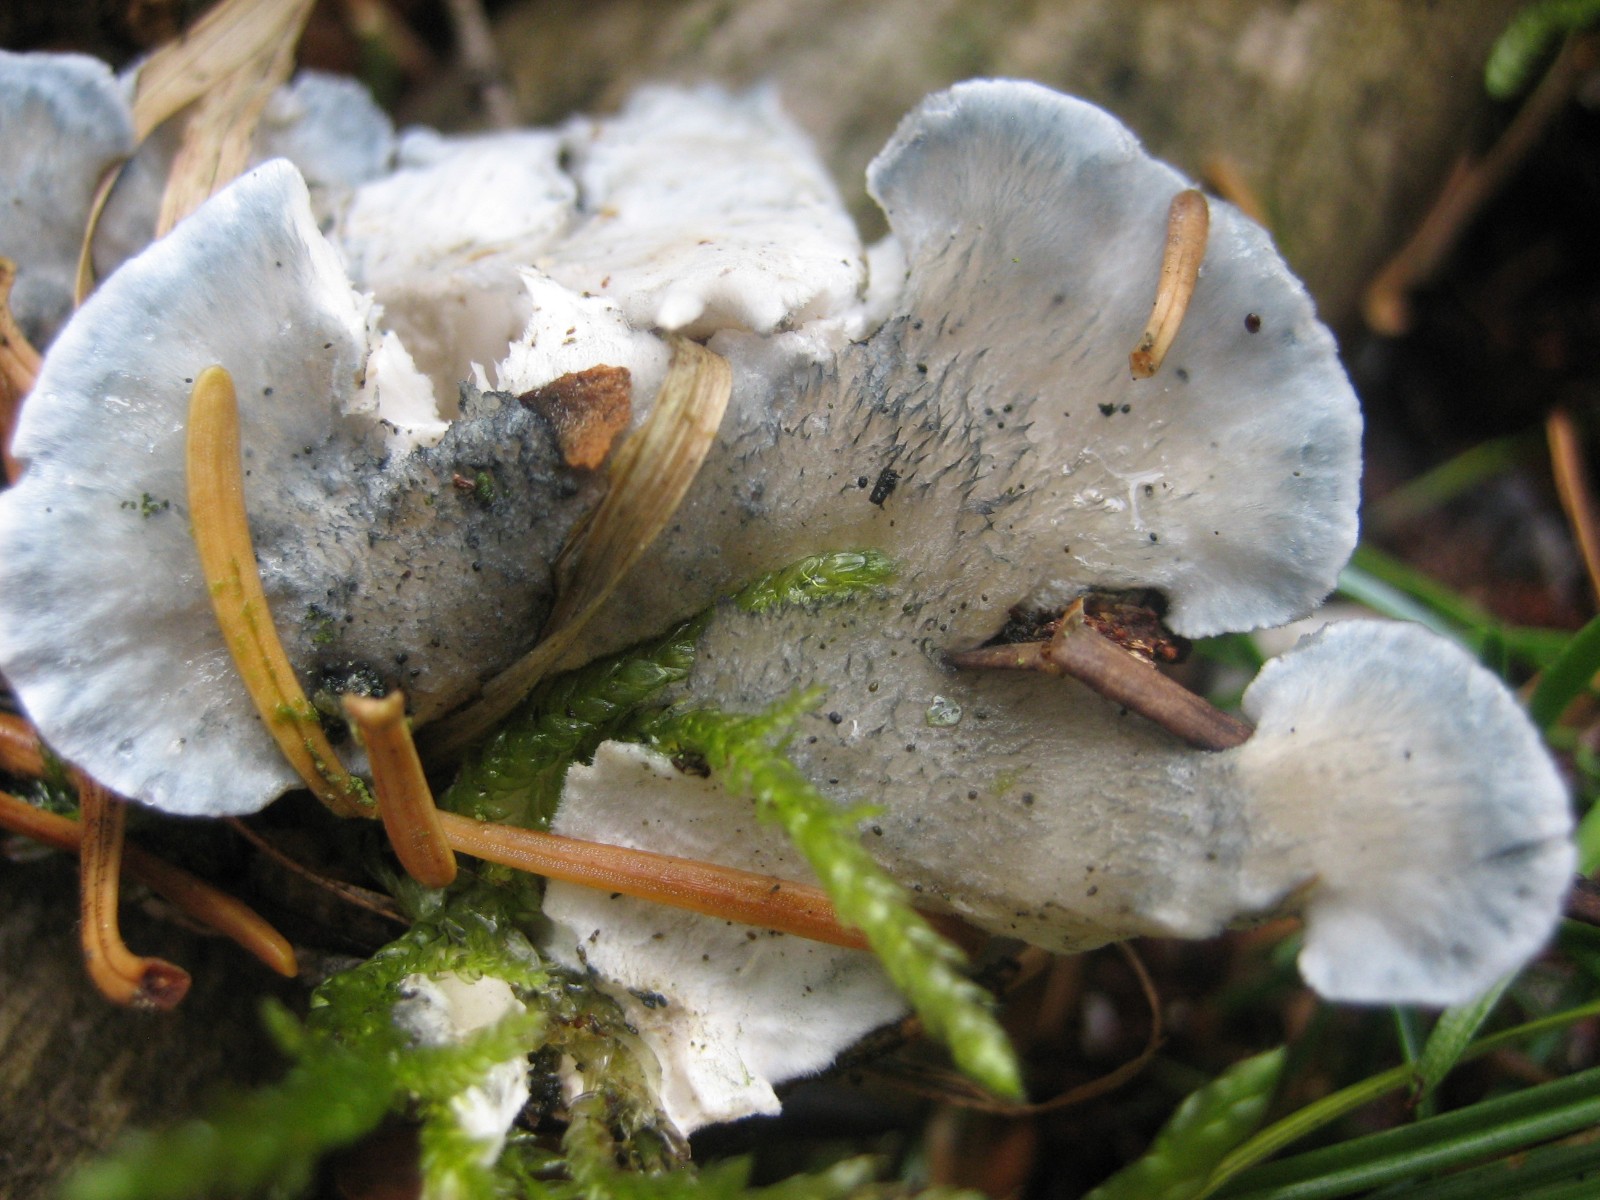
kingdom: Fungi
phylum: Basidiomycota
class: Agaricomycetes
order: Polyporales
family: Polyporaceae
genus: Cyanosporus
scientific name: Cyanosporus caesius
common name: blålig kødporesvamp
